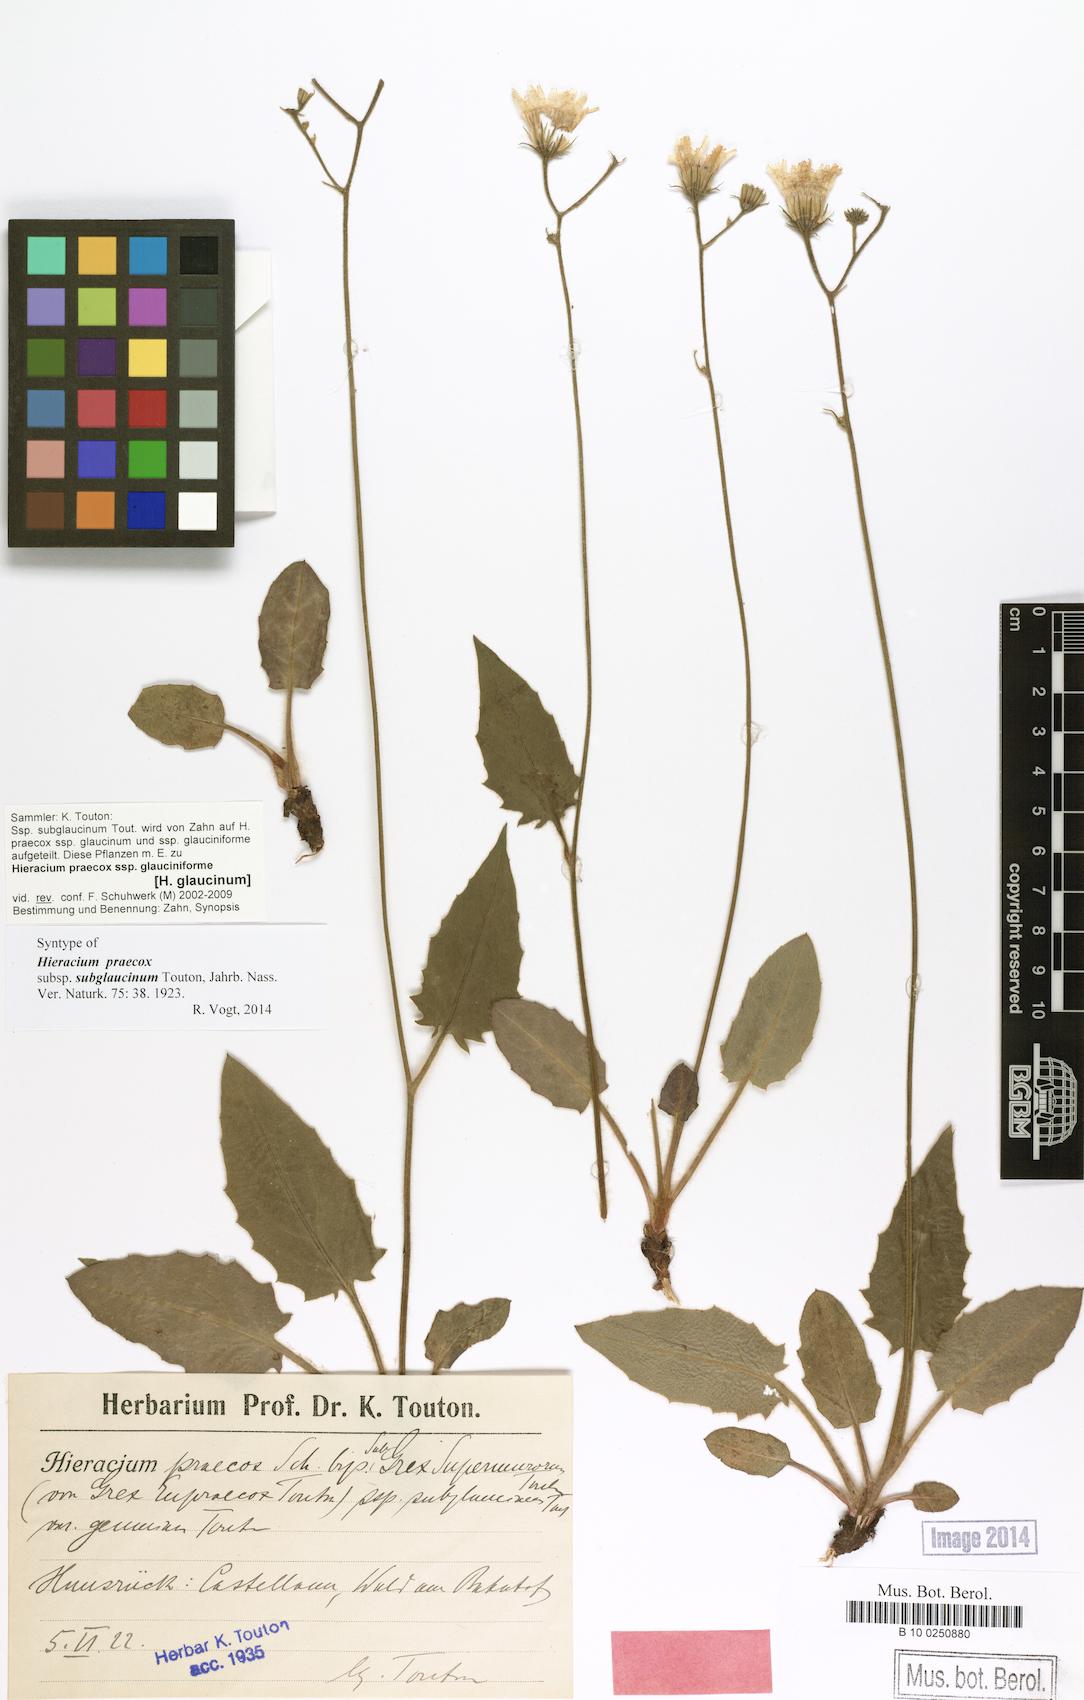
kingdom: Plantae
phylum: Tracheophyta
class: Magnoliopsida
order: Asterales
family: Asteraceae
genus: Hieracium
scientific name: Hieracium glaucinum
